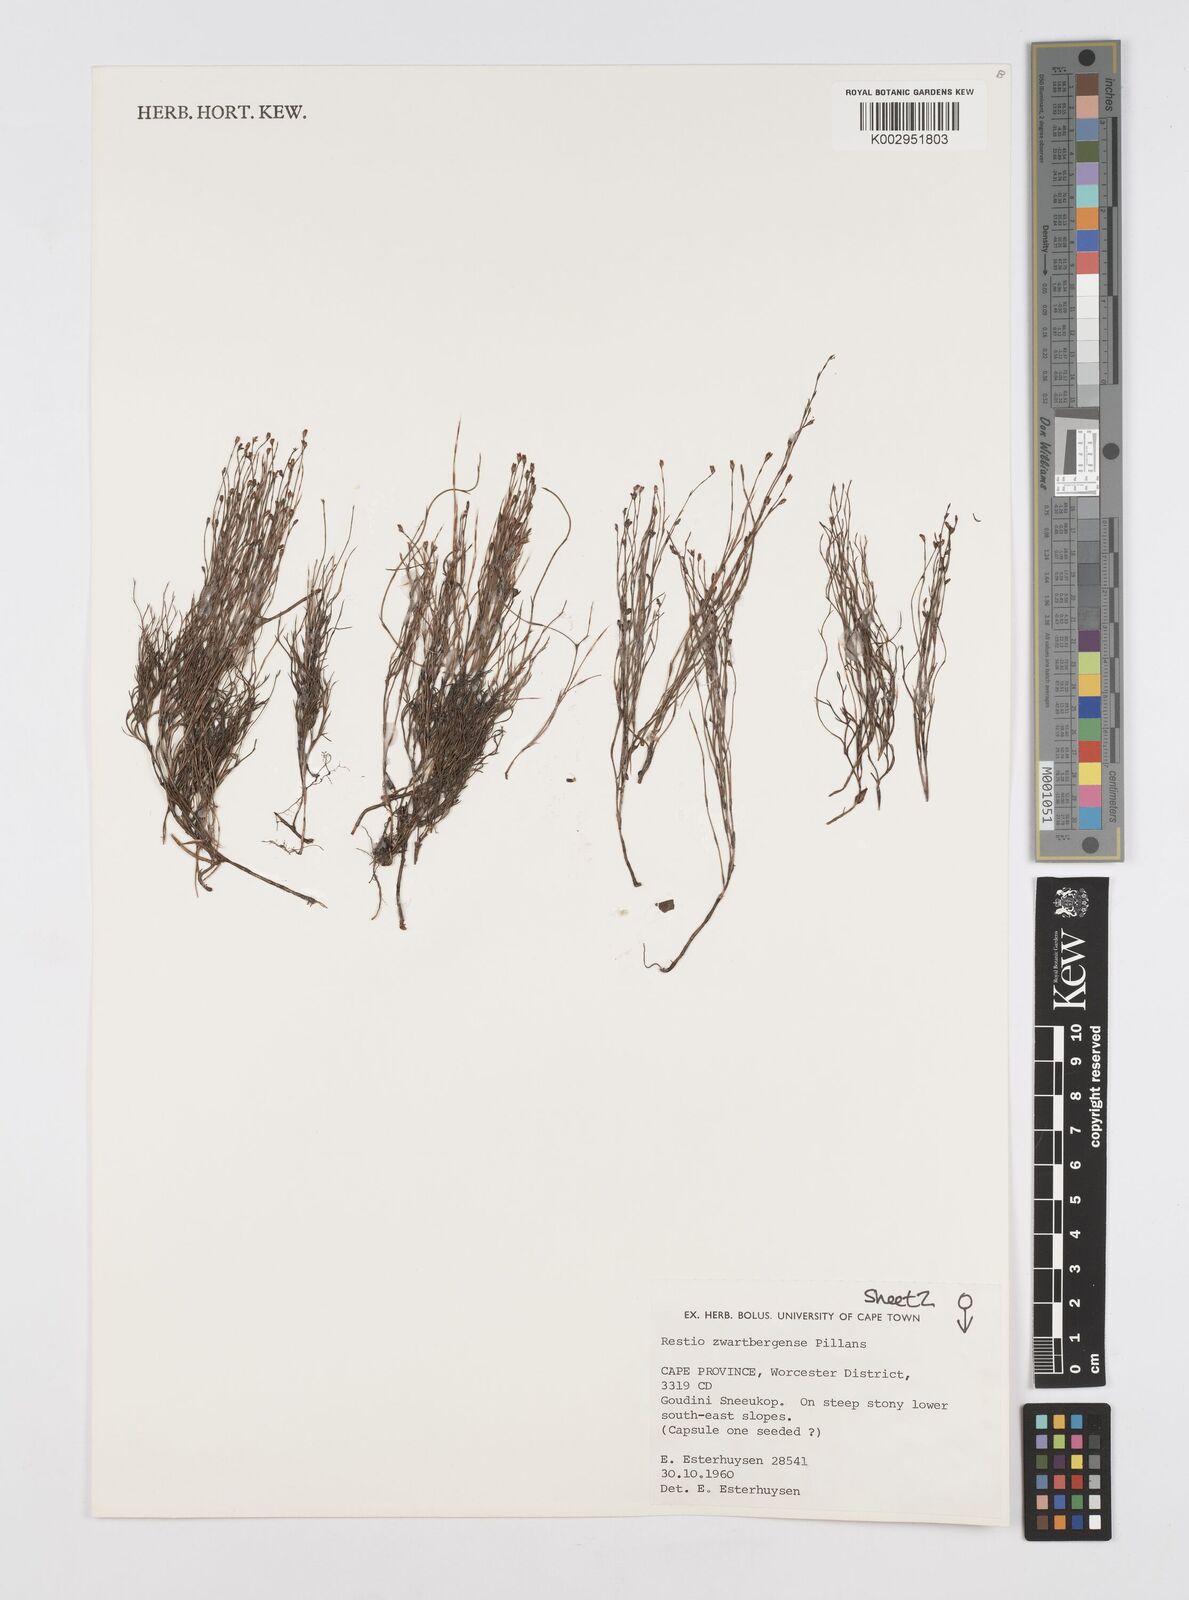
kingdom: Plantae
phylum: Tracheophyta
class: Liliopsida
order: Poales
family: Restionaceae
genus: Restio
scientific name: Restio zwartbergensis
